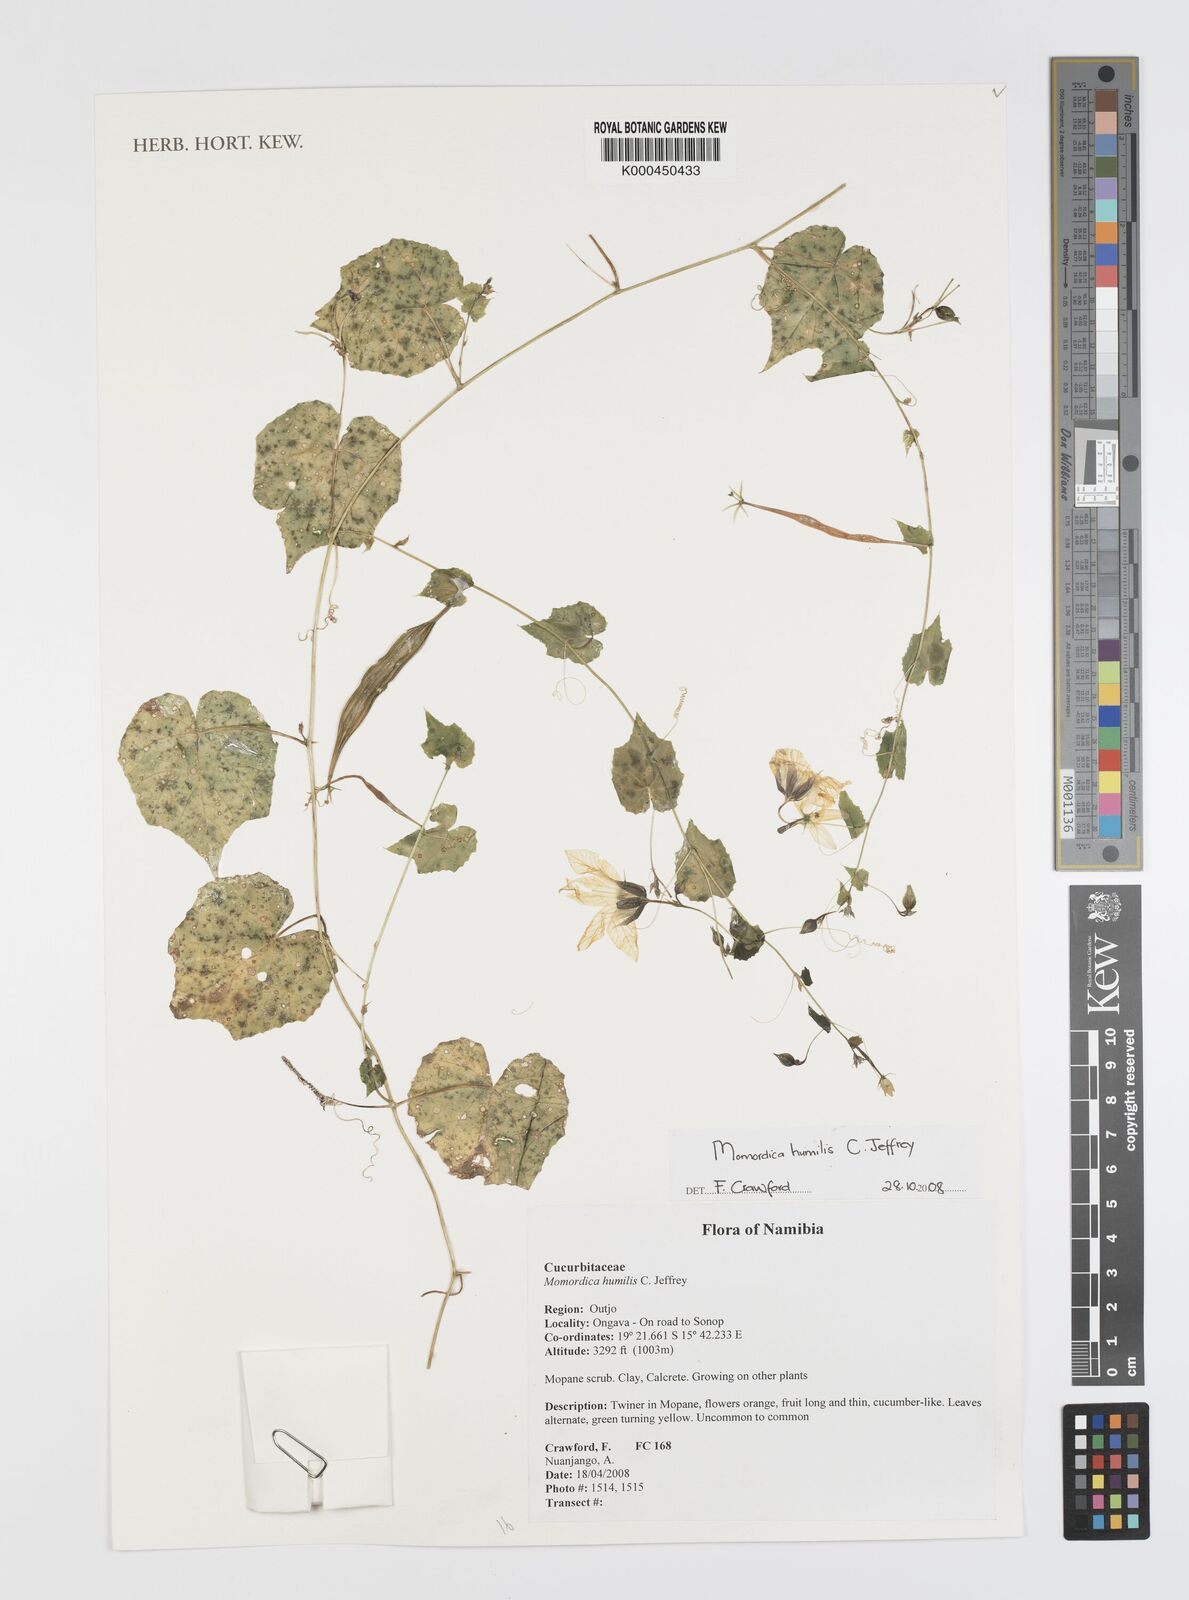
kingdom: Plantae
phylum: Tracheophyta
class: Magnoliopsida
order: Cucurbitales
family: Cucurbitaceae
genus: Momordica
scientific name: Momordica humilis
